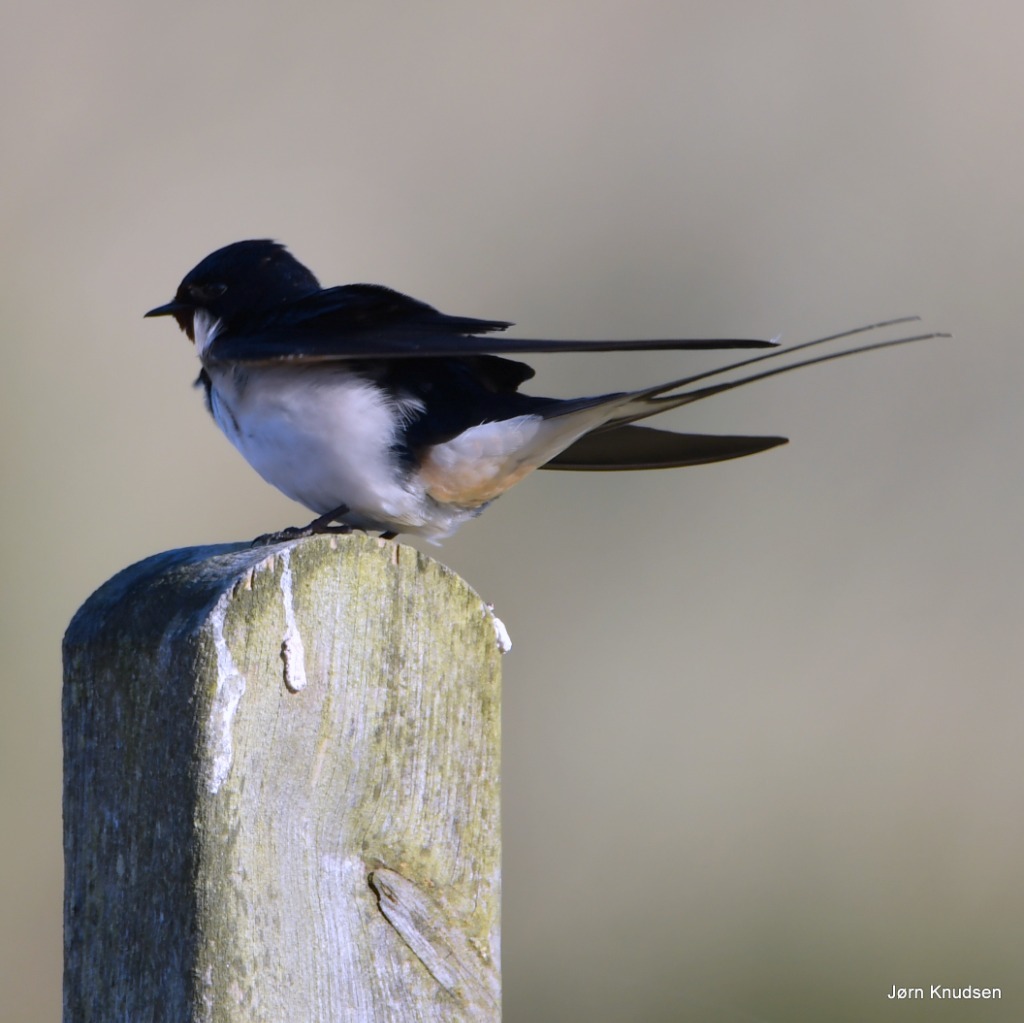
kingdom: Animalia
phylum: Chordata
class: Aves
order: Passeriformes
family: Hirundinidae
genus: Hirundo
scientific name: Hirundo rustica
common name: Landsvale
